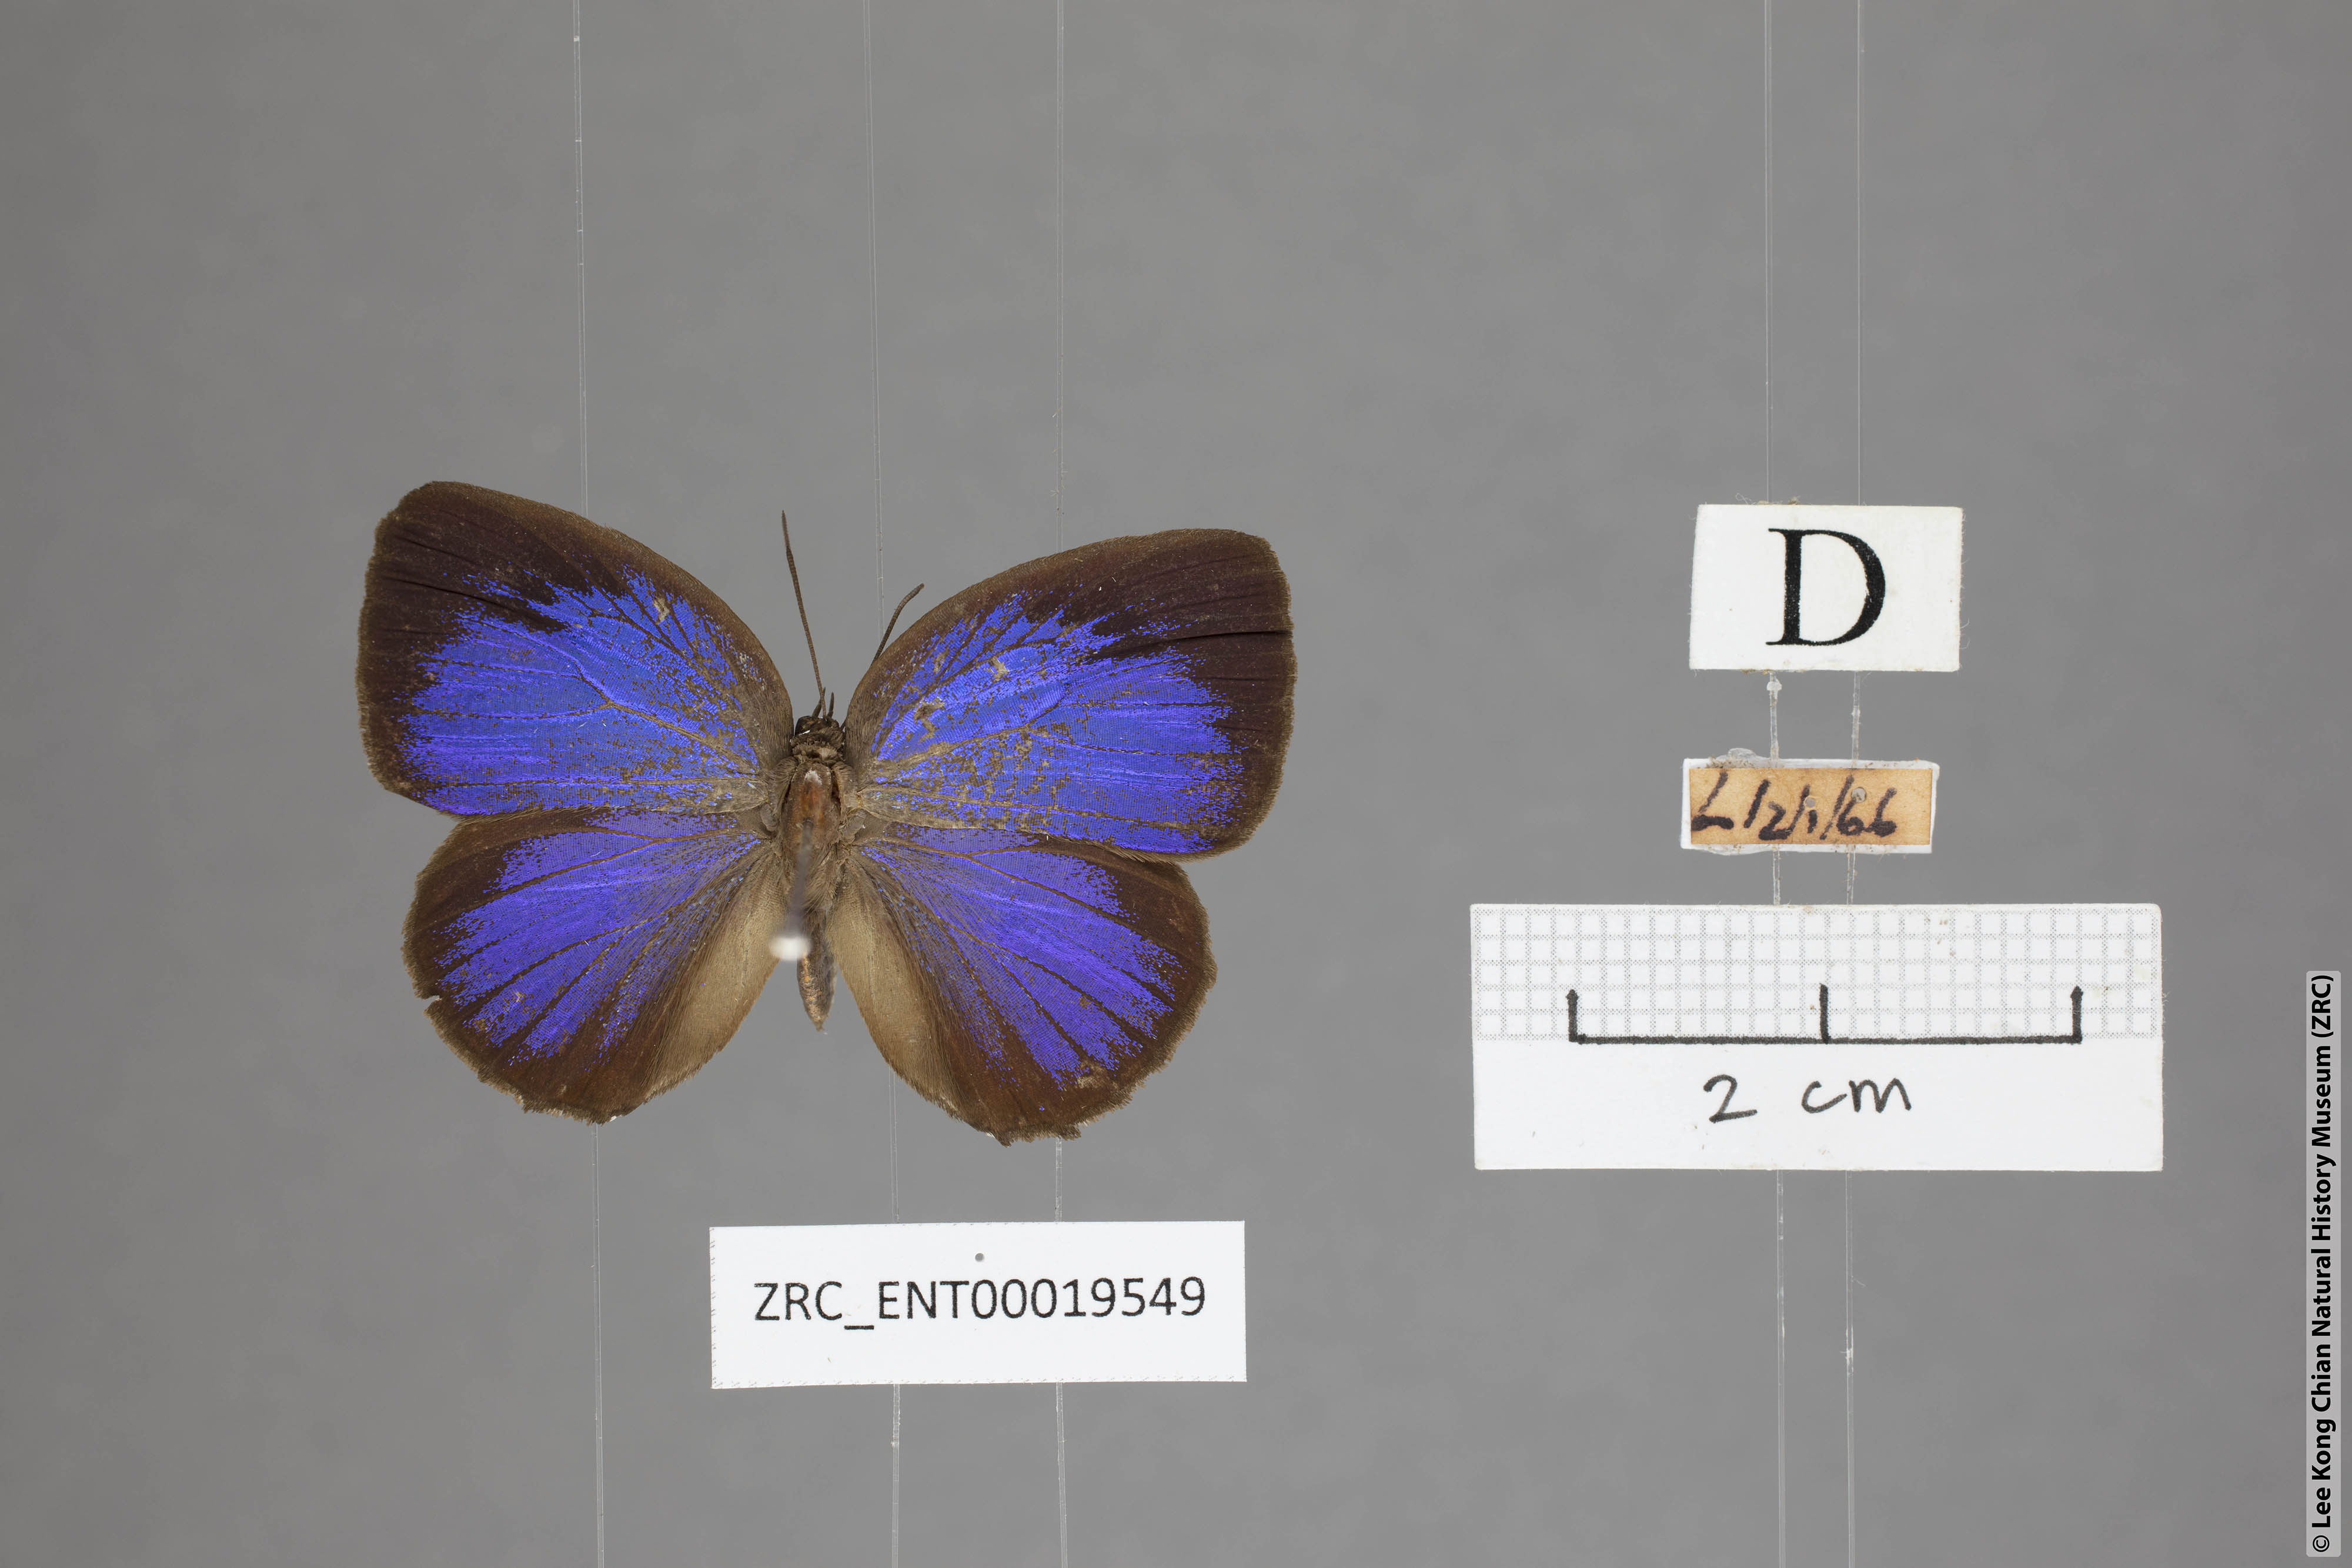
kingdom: Animalia
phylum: Arthropoda
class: Insecta
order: Lepidoptera
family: Lycaenidae
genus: Arhopala
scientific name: Arhopala hypomuta
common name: Violet oakblue
